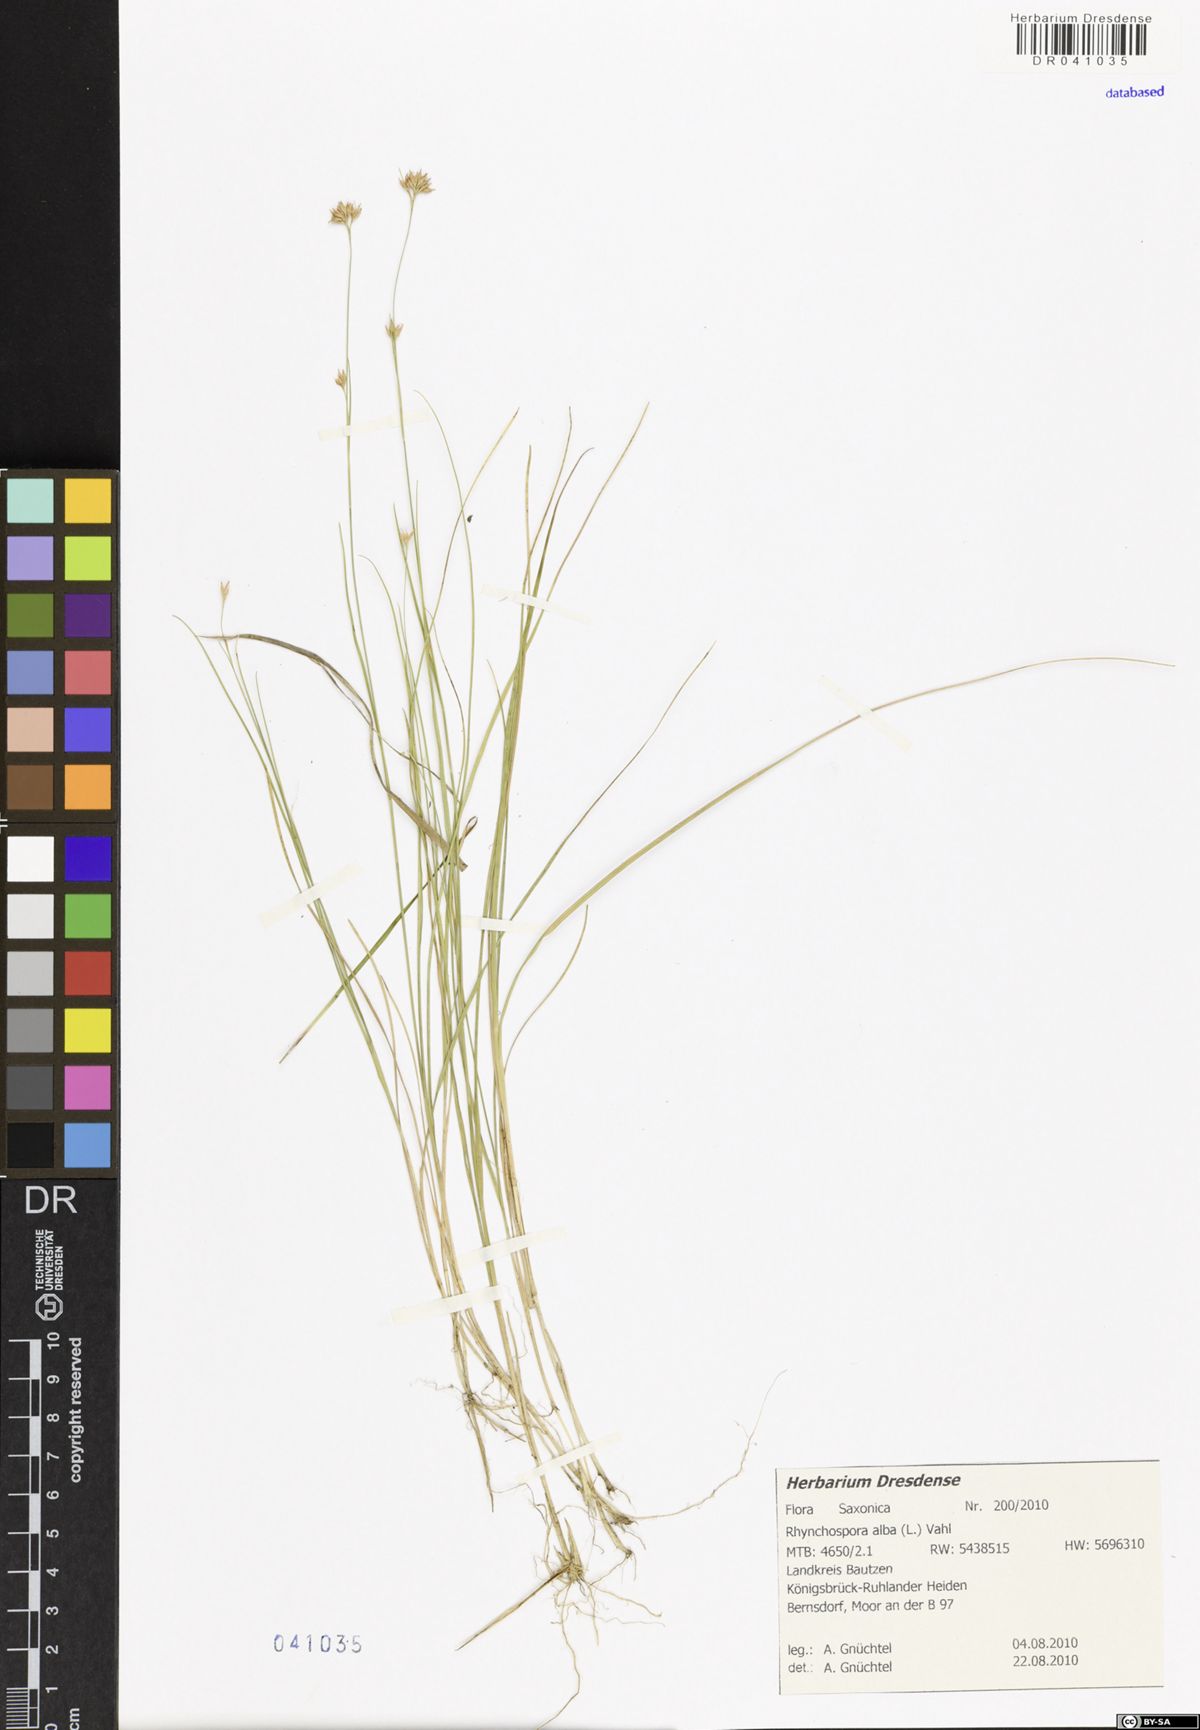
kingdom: Plantae
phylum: Tracheophyta
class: Liliopsida
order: Poales
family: Cyperaceae
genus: Rhynchospora
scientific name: Rhynchospora alba
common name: White beak-sedge
